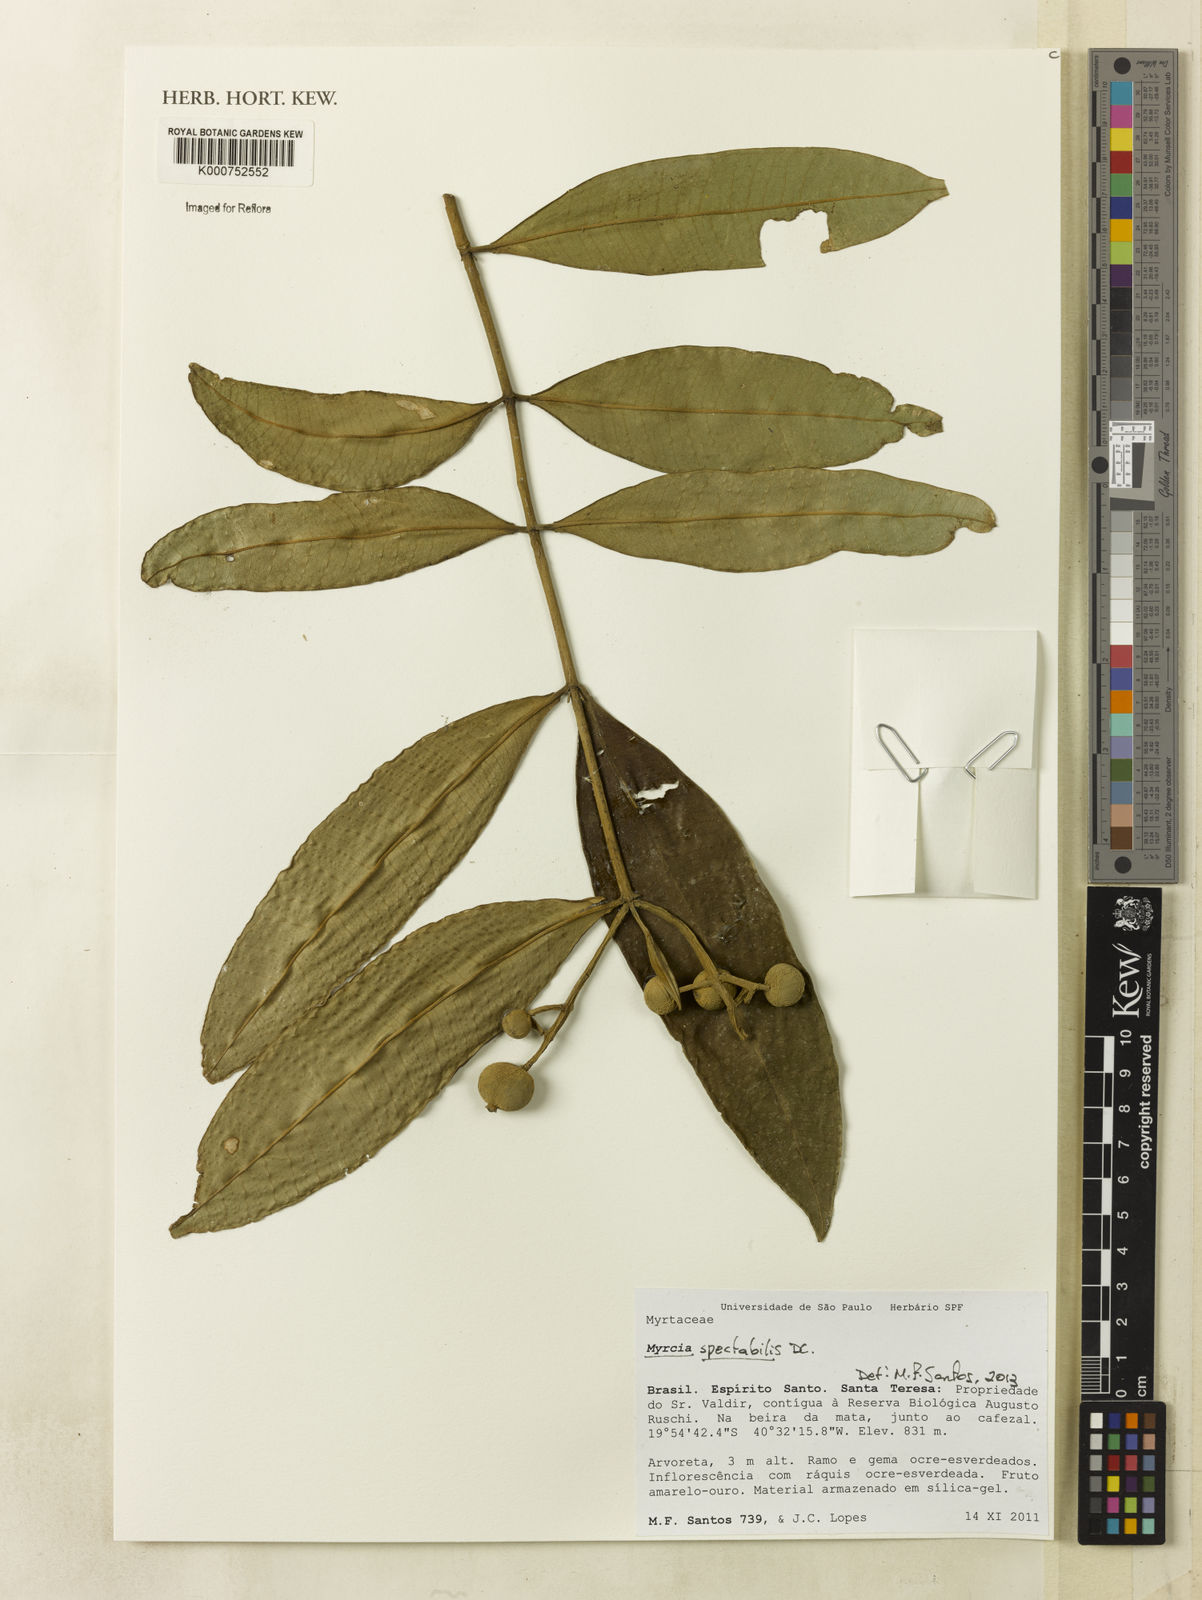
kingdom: Plantae
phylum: Tracheophyta
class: Magnoliopsida
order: Myrtales
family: Myrtaceae
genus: Myrcia
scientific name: Myrcia spectabilis
